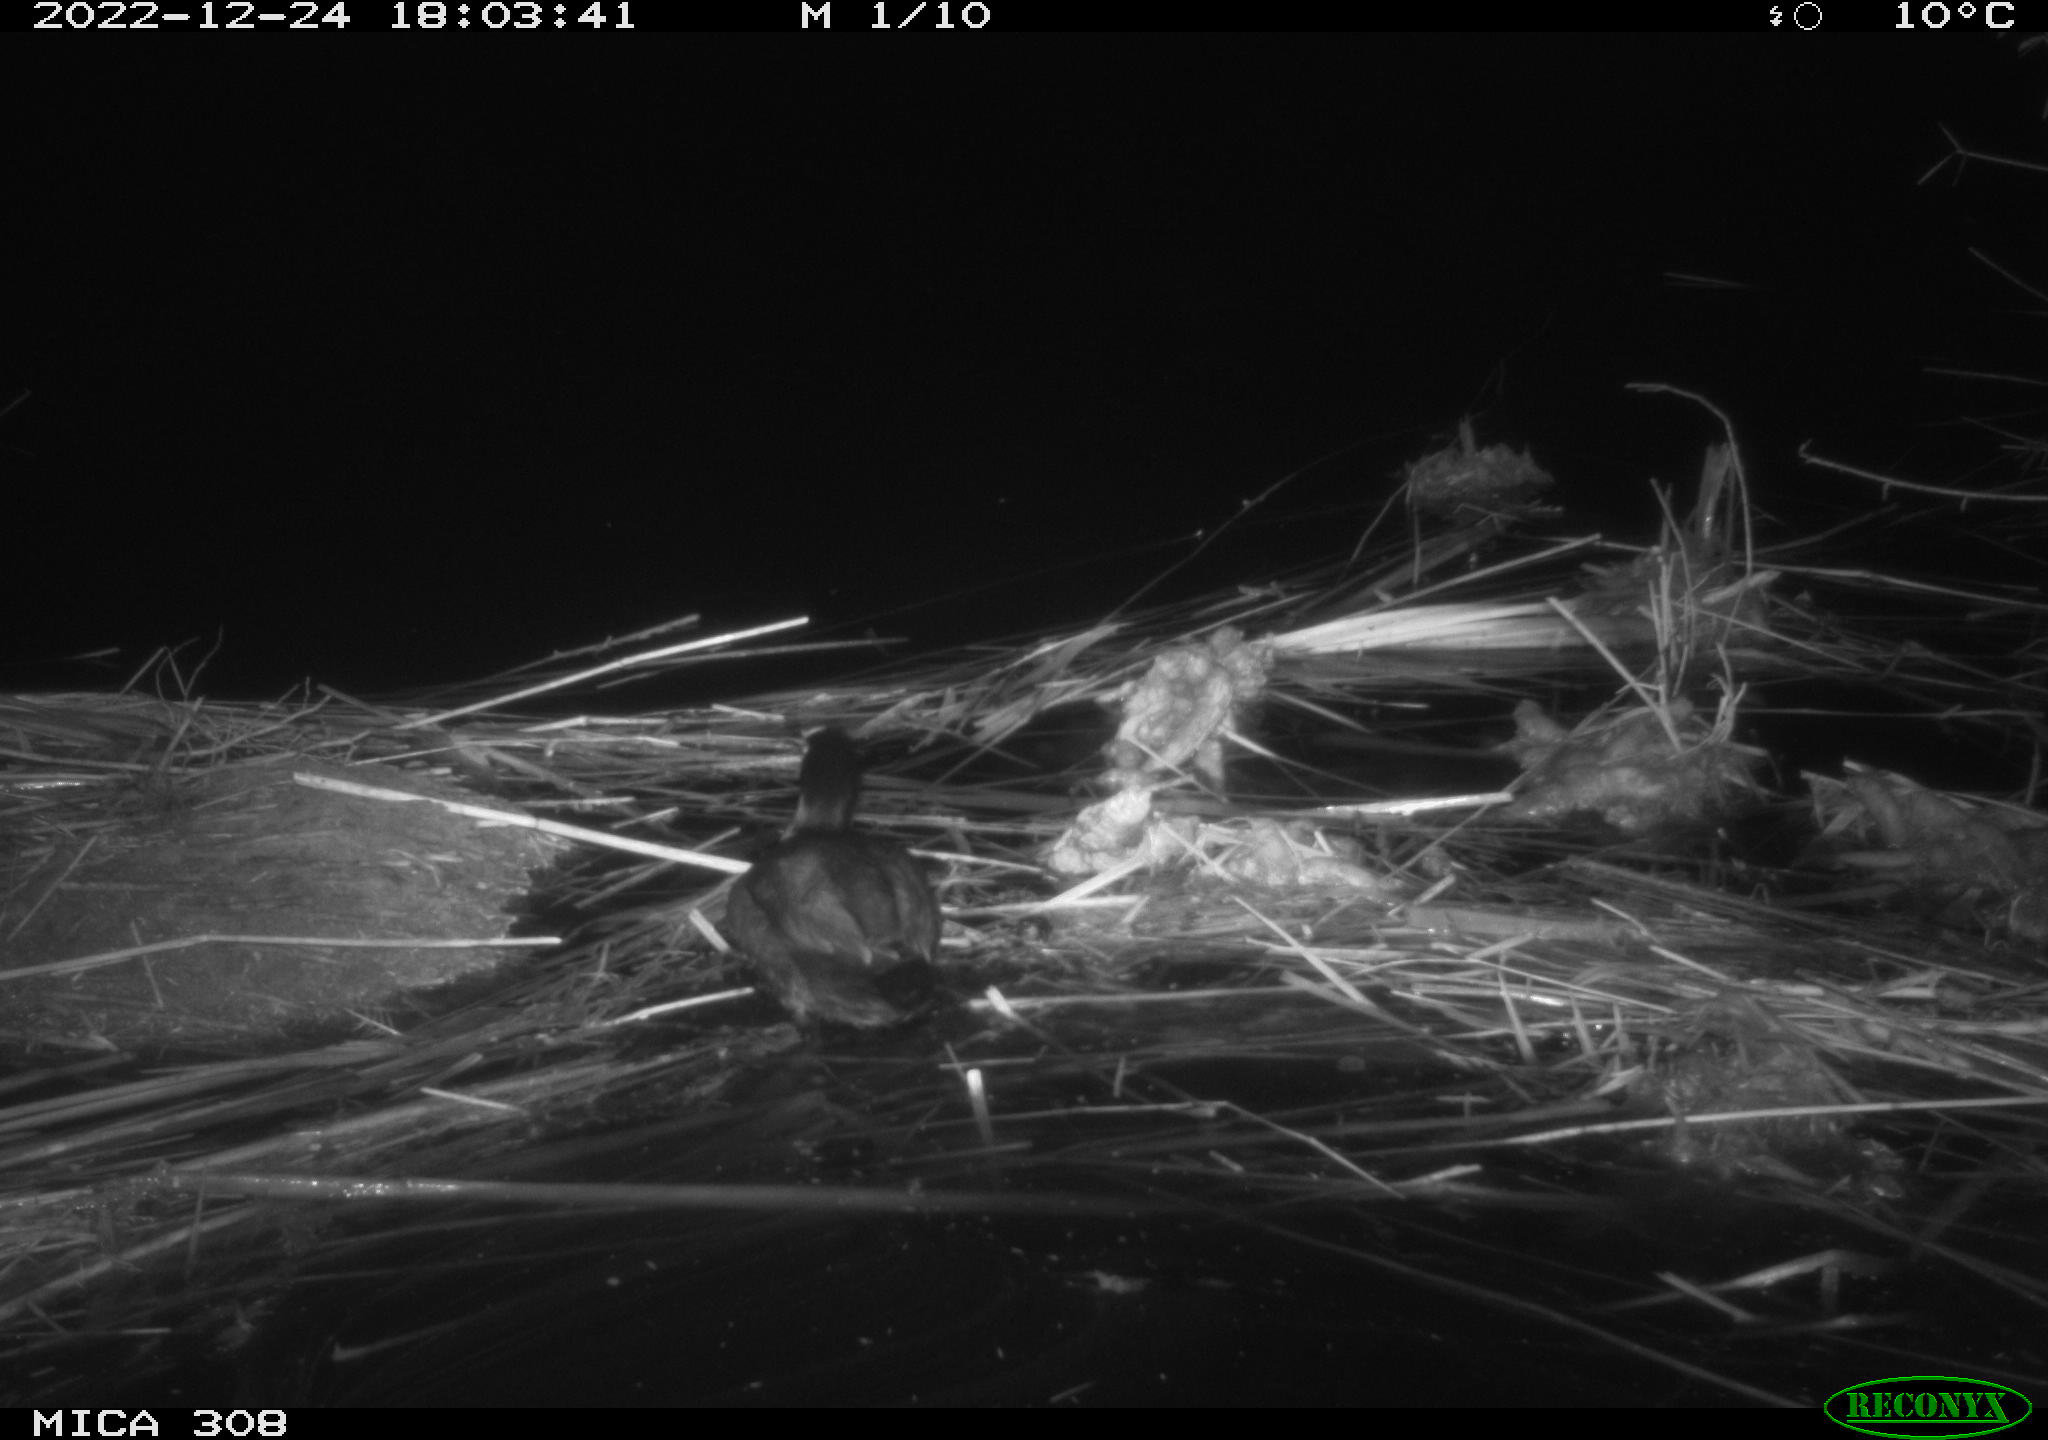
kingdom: Animalia
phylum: Chordata
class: Aves
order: Anseriformes
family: Anatidae
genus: Anas
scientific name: Anas
